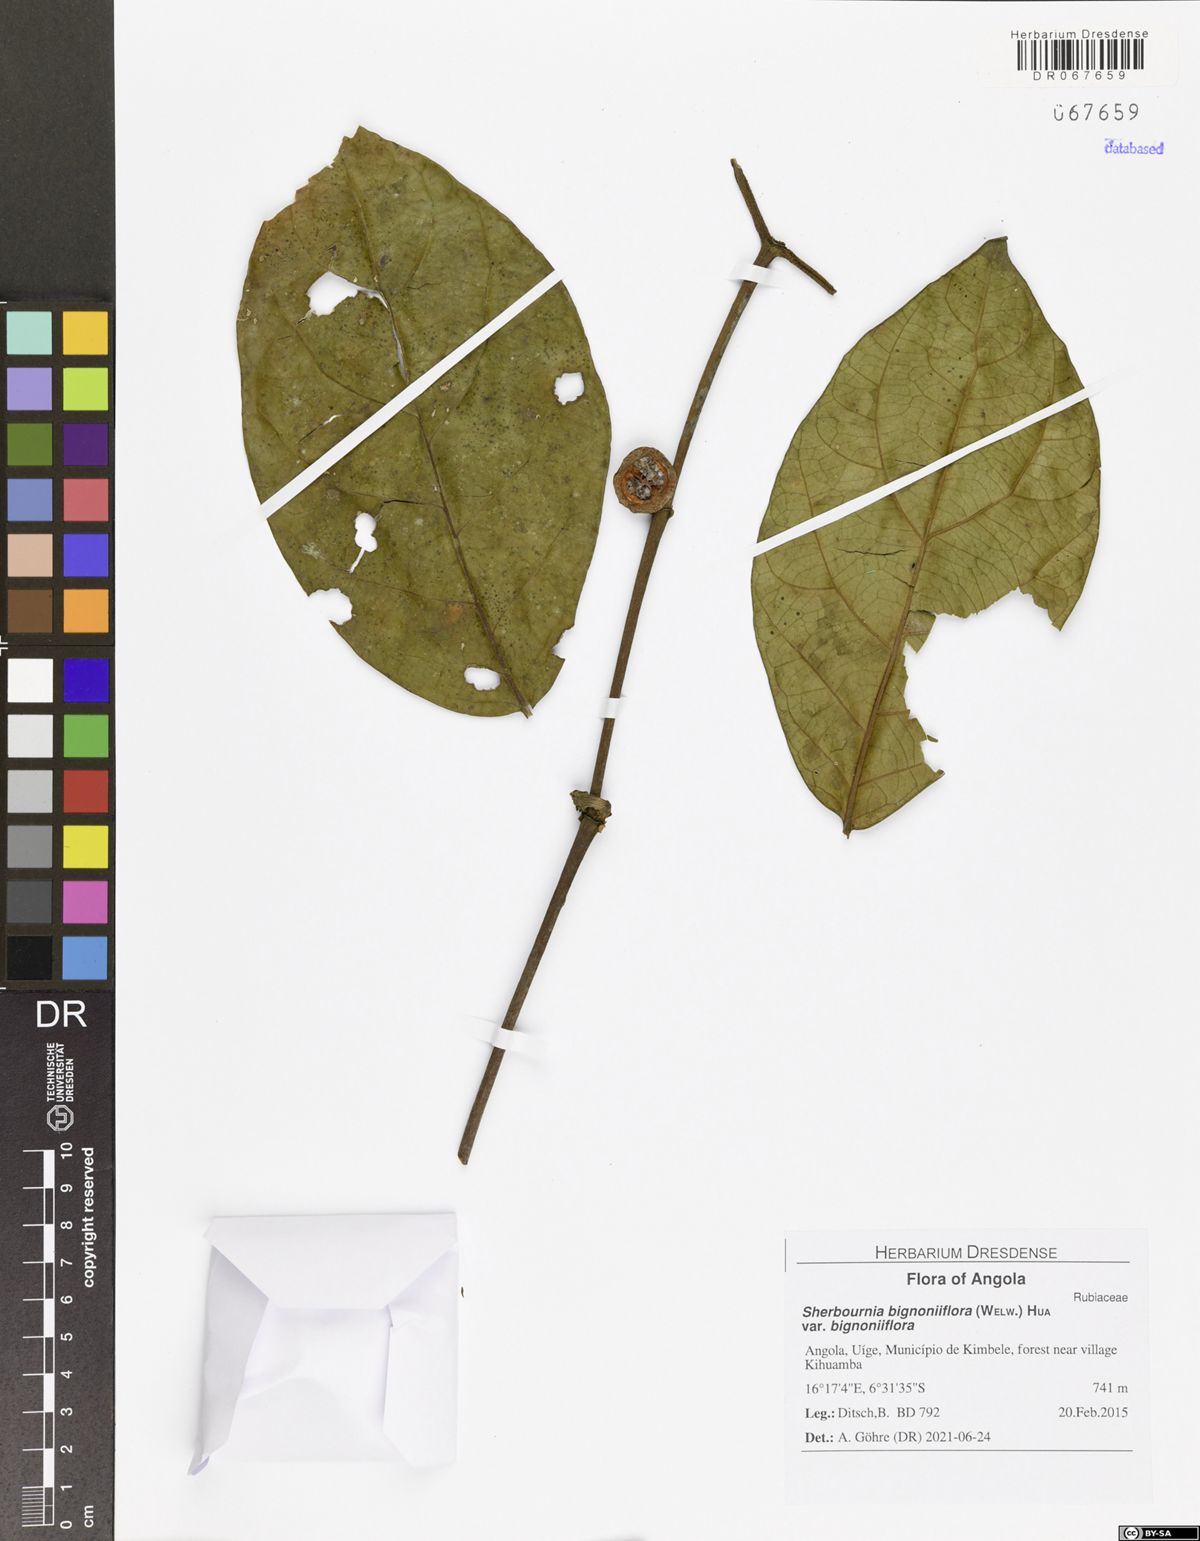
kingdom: Plantae
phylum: Tracheophyta
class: Magnoliopsida
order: Gentianales
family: Rubiaceae
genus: Sherbournia
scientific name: Sherbournia bignoniiflora
